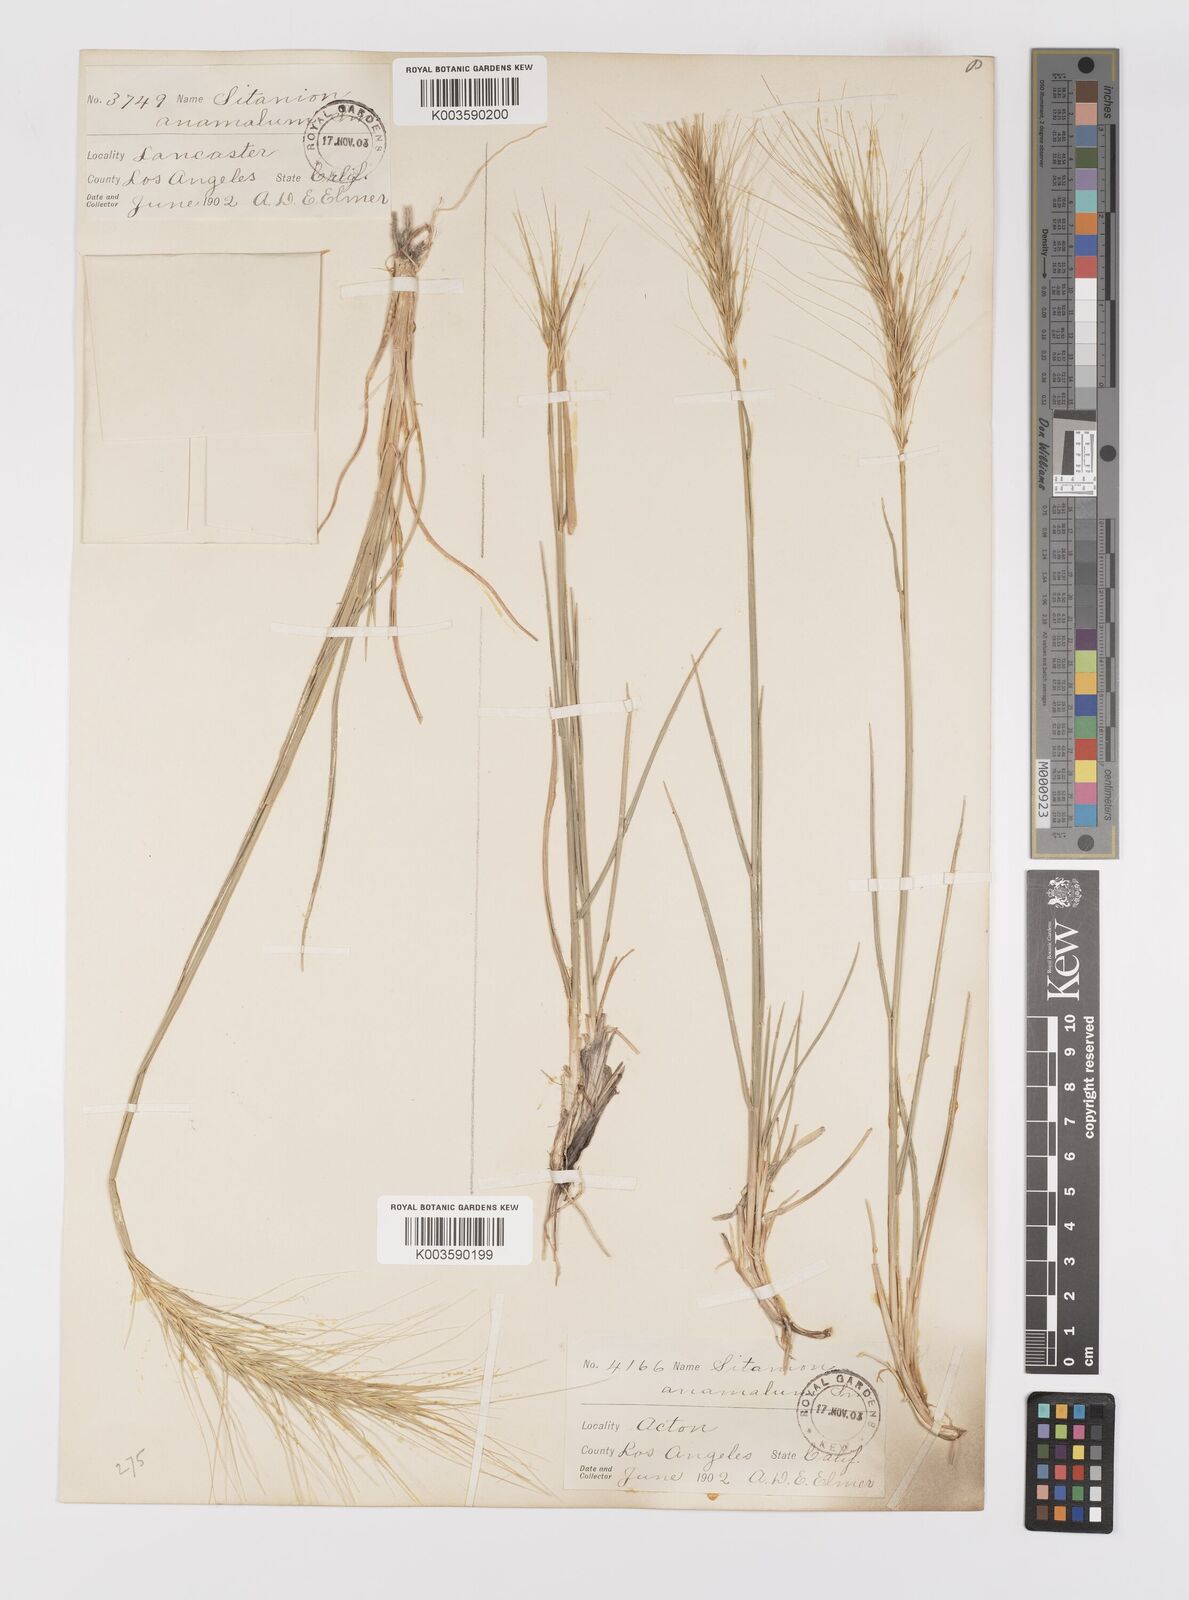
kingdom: Plantae
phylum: Tracheophyta
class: Liliopsida
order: Poales
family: Poaceae
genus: Elymus
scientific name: Elymus hansenii
